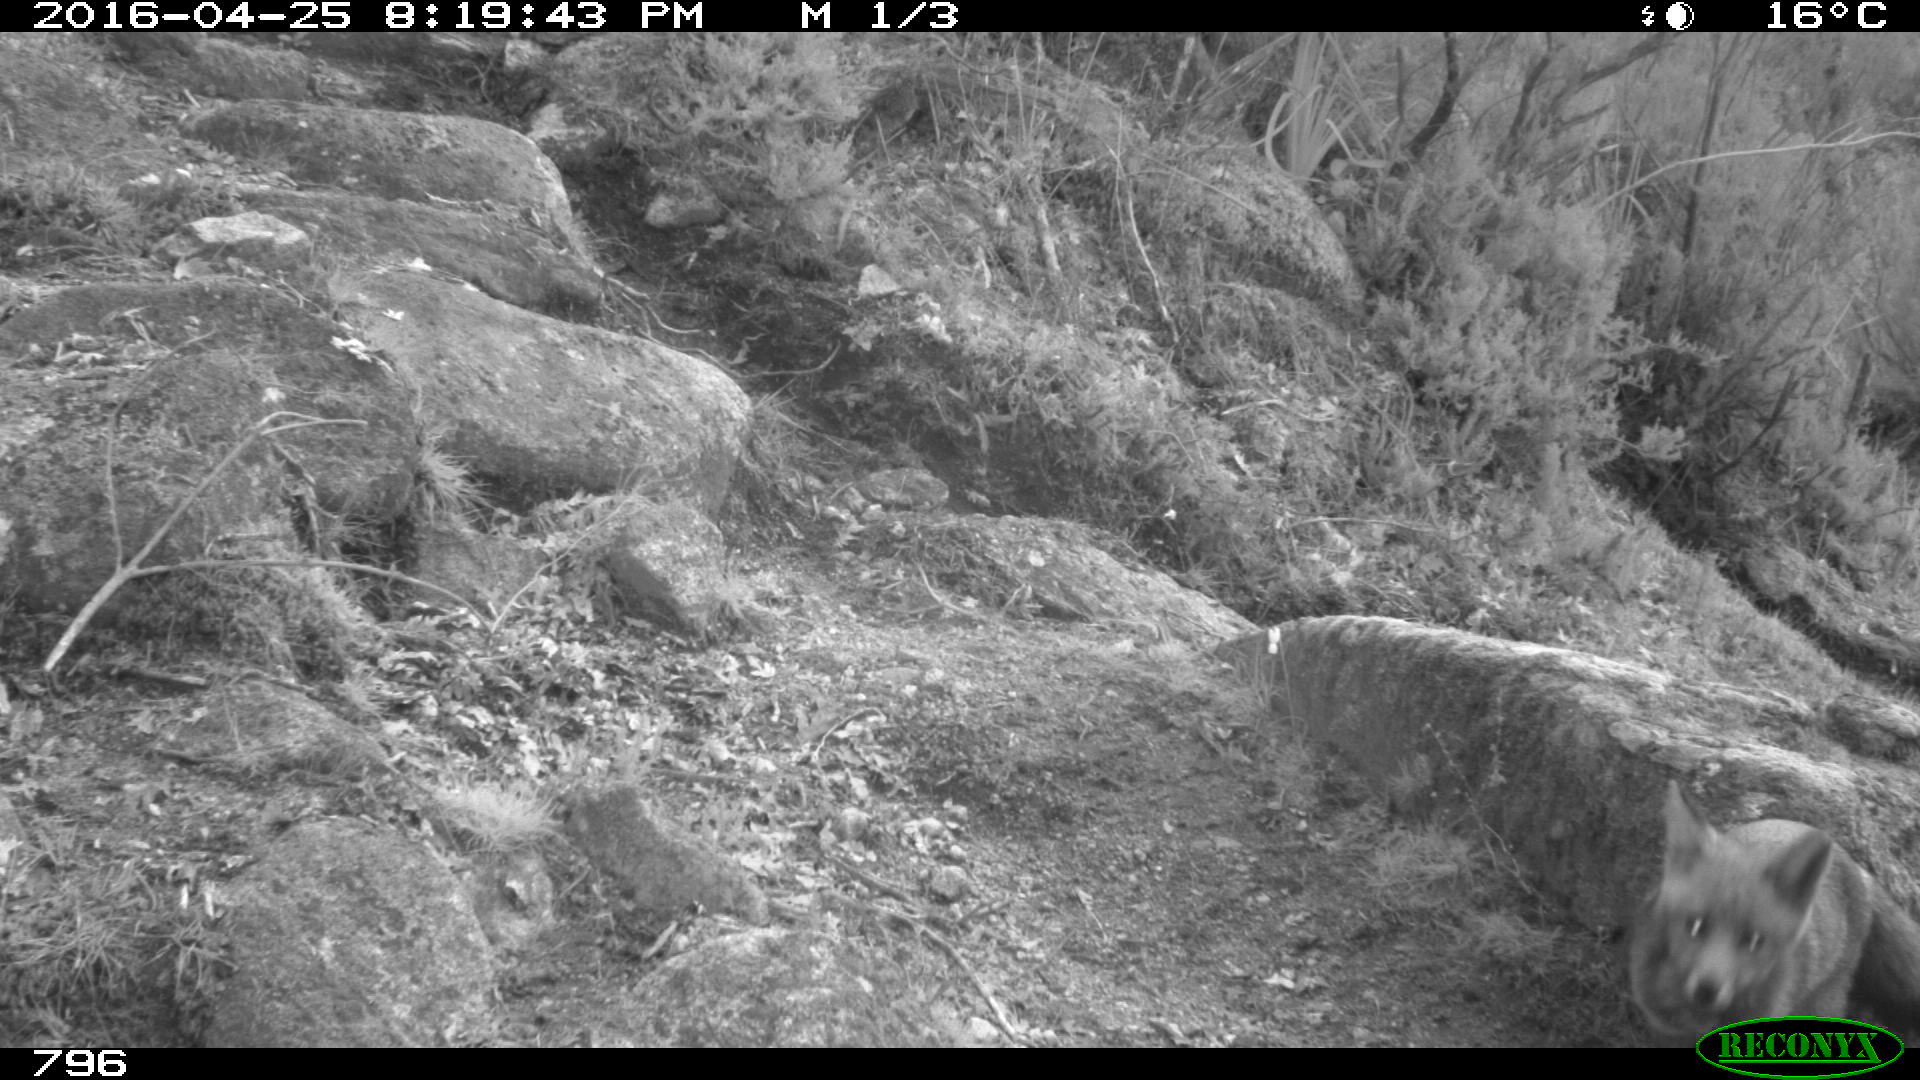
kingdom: Animalia
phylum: Chordata
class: Mammalia
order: Carnivora
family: Canidae
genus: Vulpes
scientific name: Vulpes vulpes
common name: Red fox
